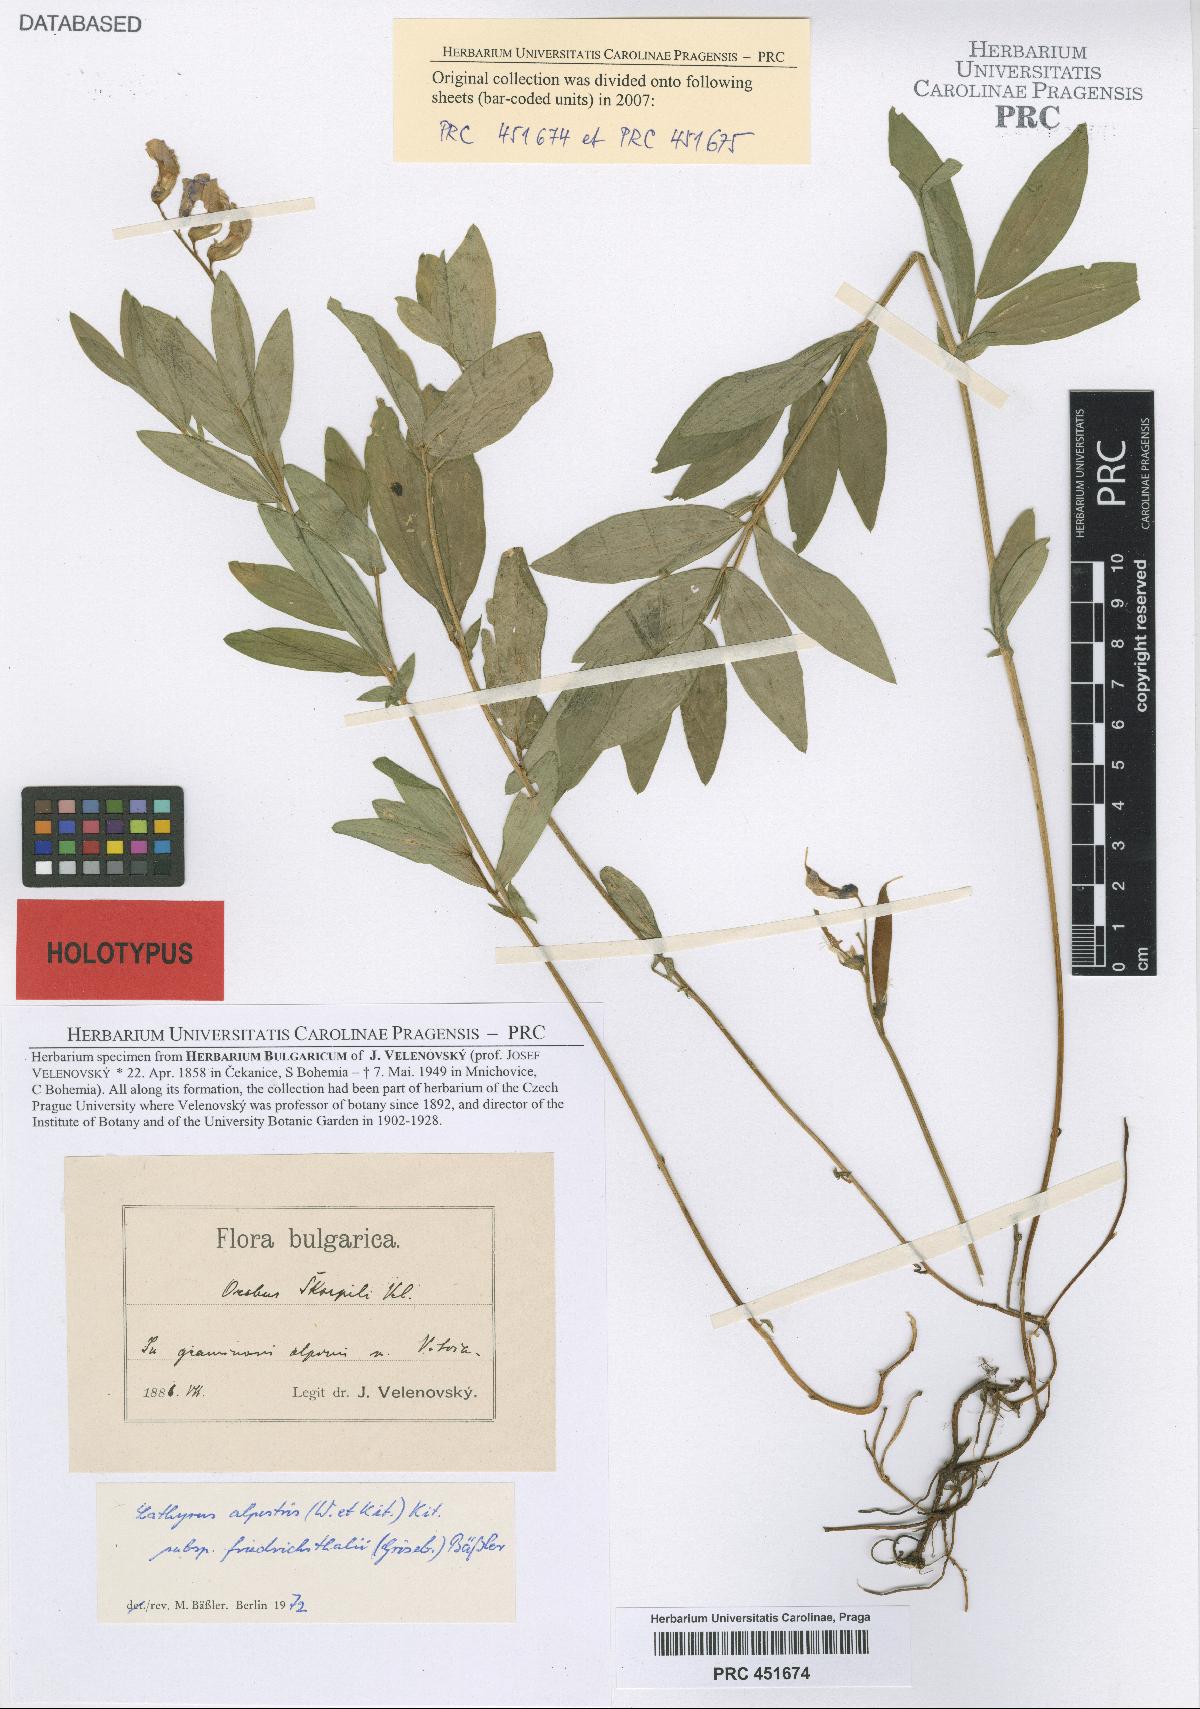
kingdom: Plantae
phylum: Tracheophyta
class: Magnoliopsida
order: Fabales
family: Fabaceae
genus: Lathyrus
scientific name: Lathyrus alpestris
